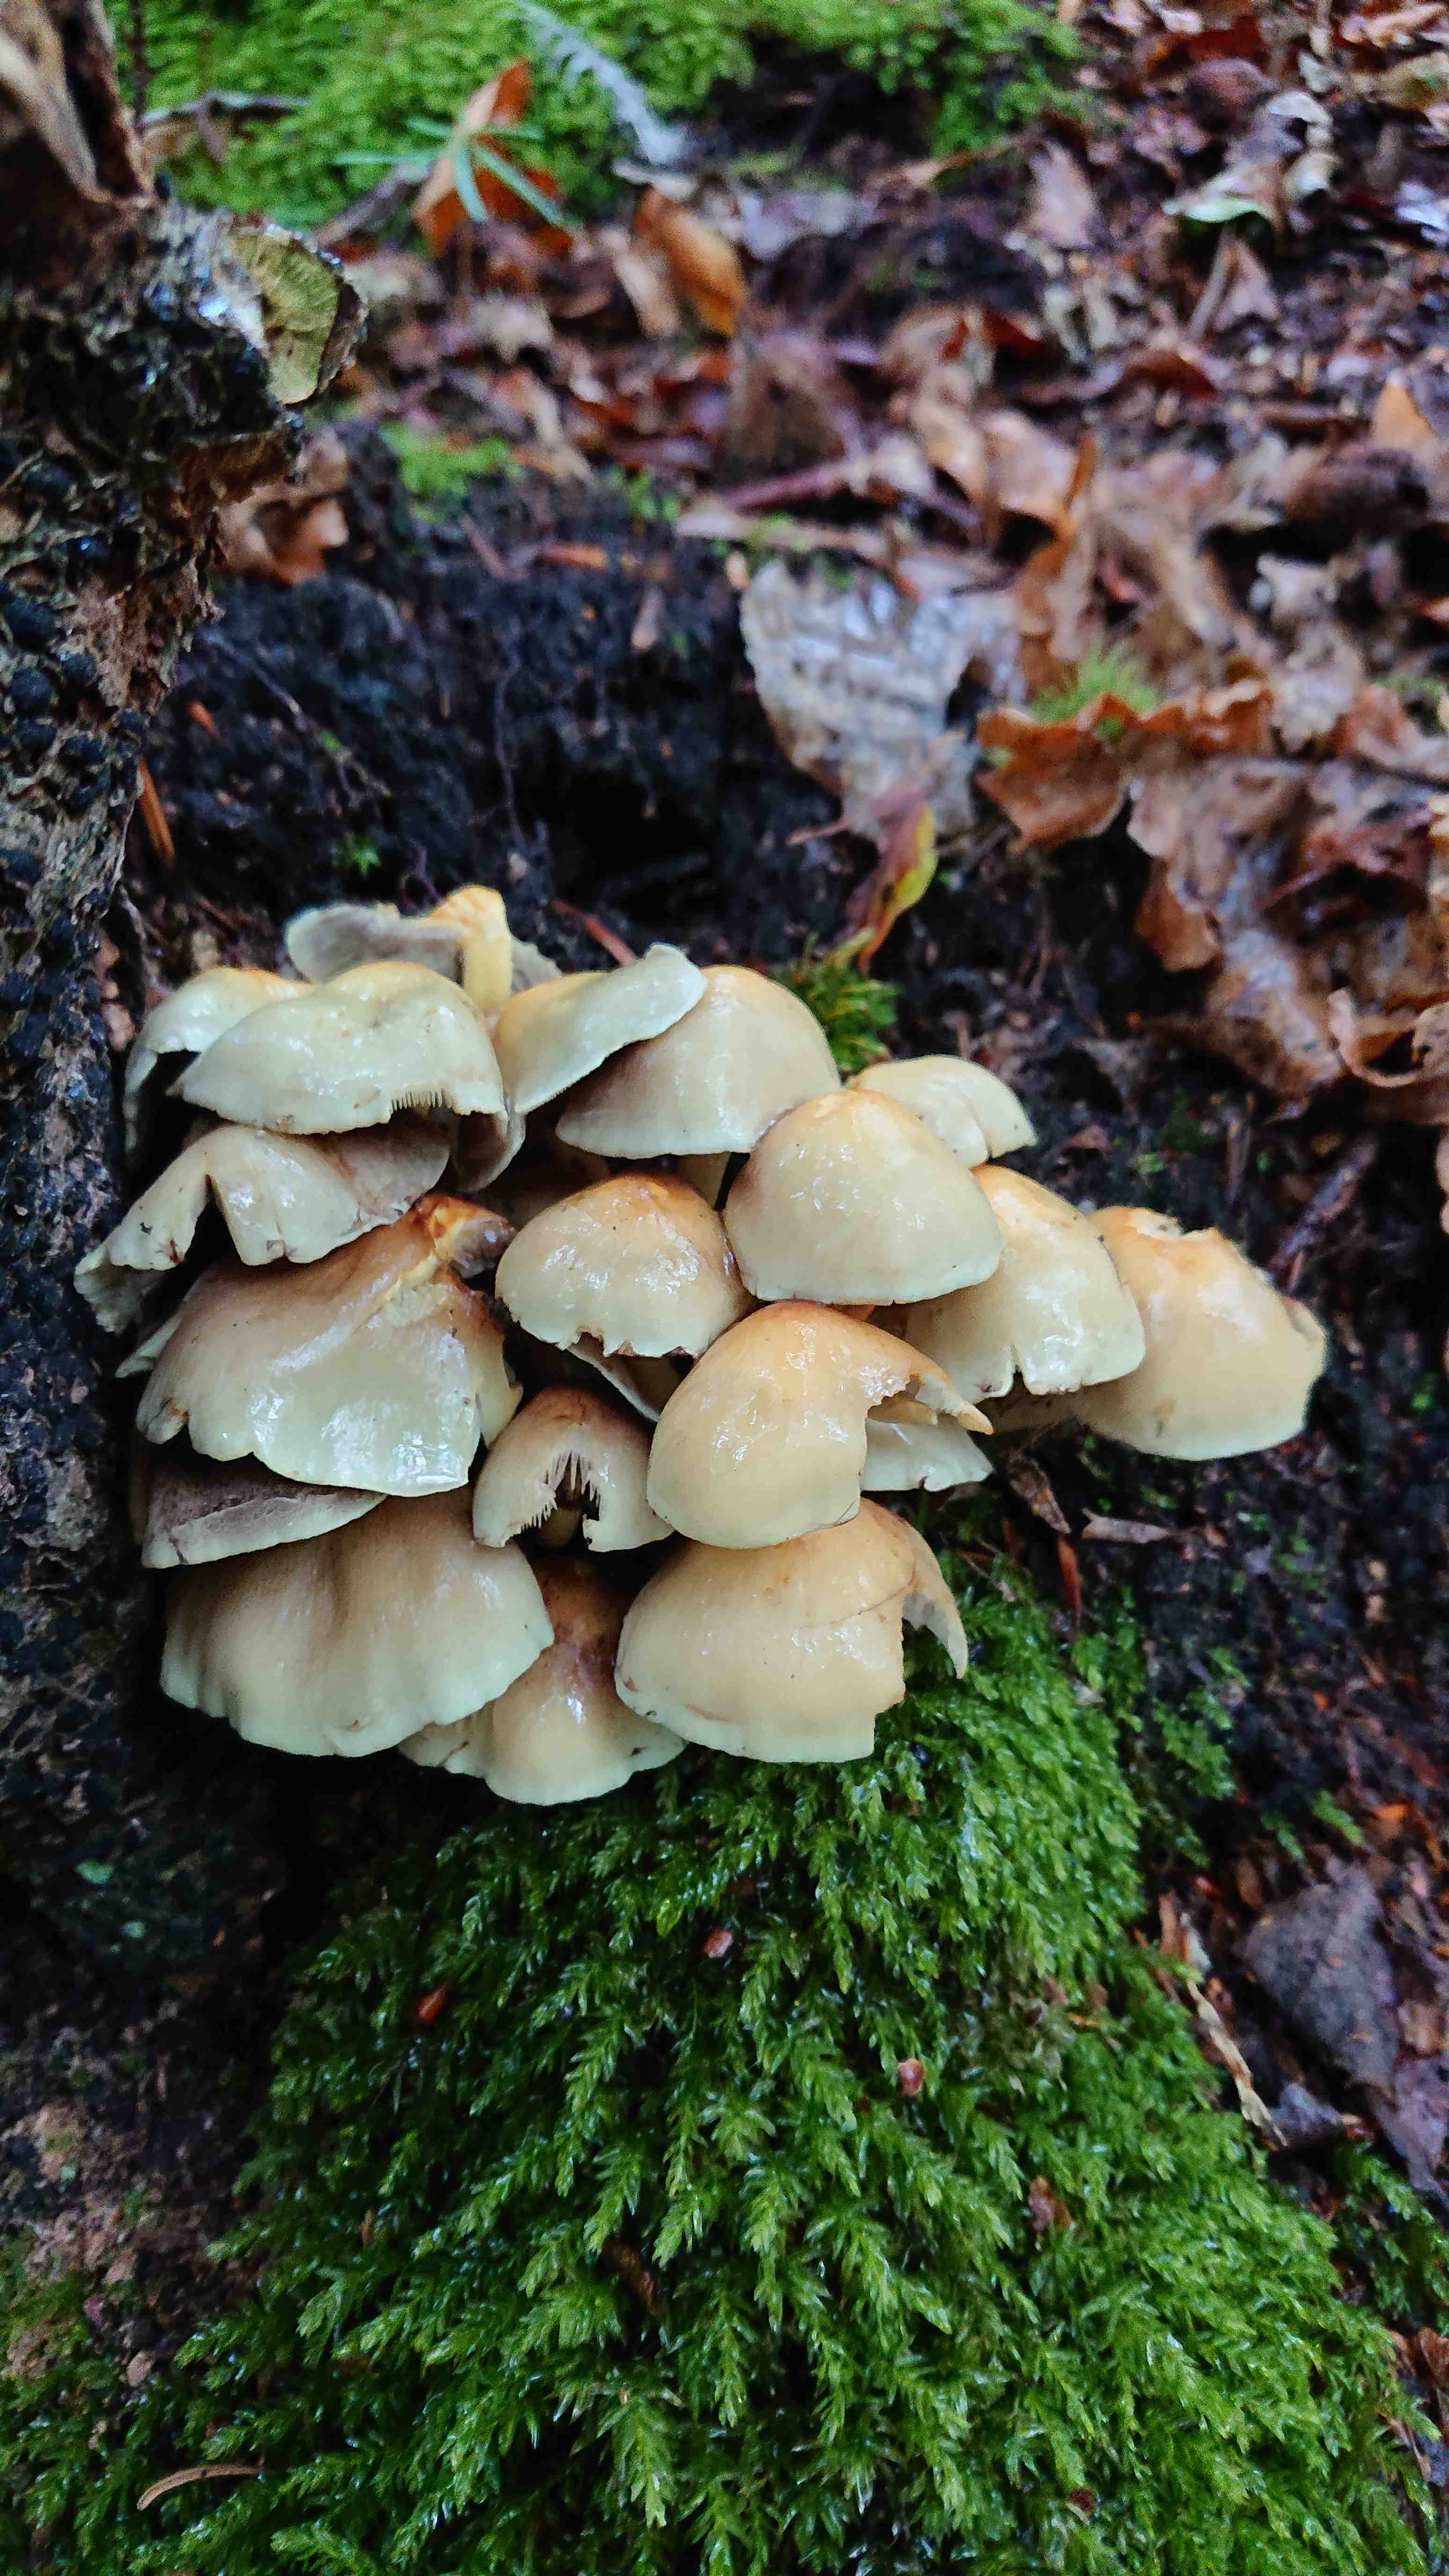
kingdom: Fungi
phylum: Basidiomycota
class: Agaricomycetes
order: Agaricales
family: Strophariaceae
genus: Hypholoma
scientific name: Hypholoma fasciculare
